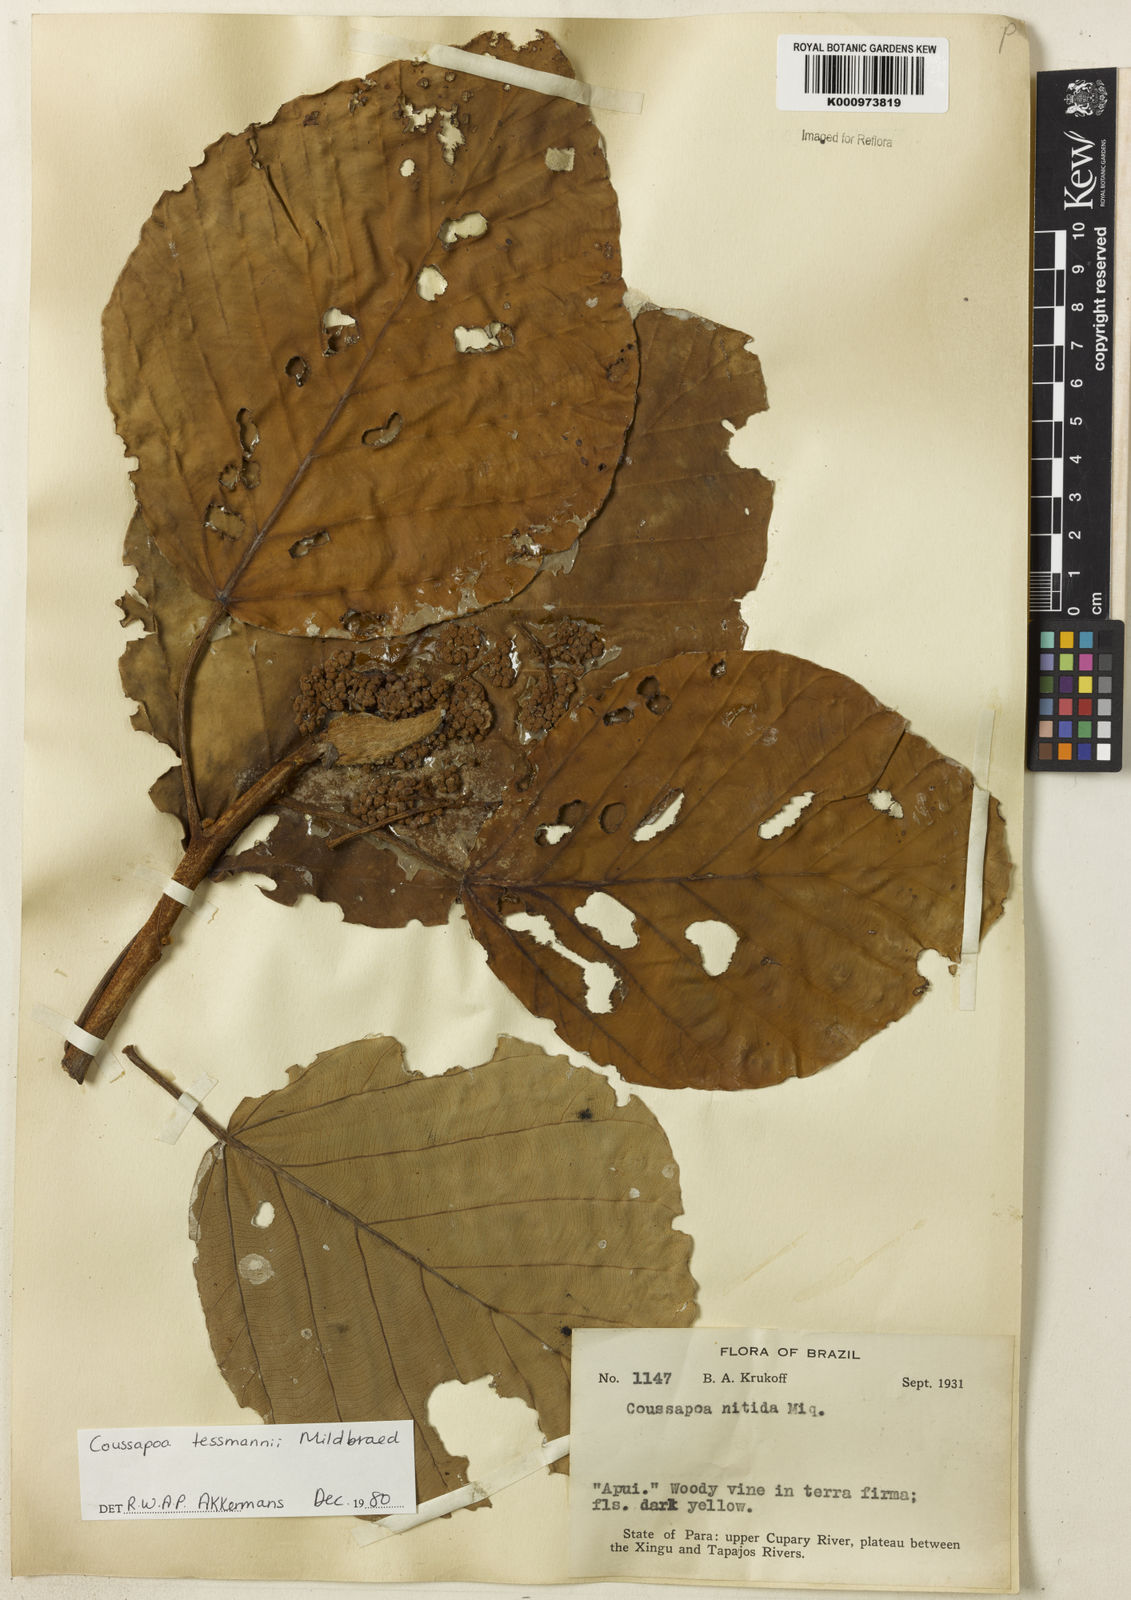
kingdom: Plantae
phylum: Tracheophyta
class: Magnoliopsida
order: Rosales
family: Urticaceae
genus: Coussapoa
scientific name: Coussapoa tessmannii
